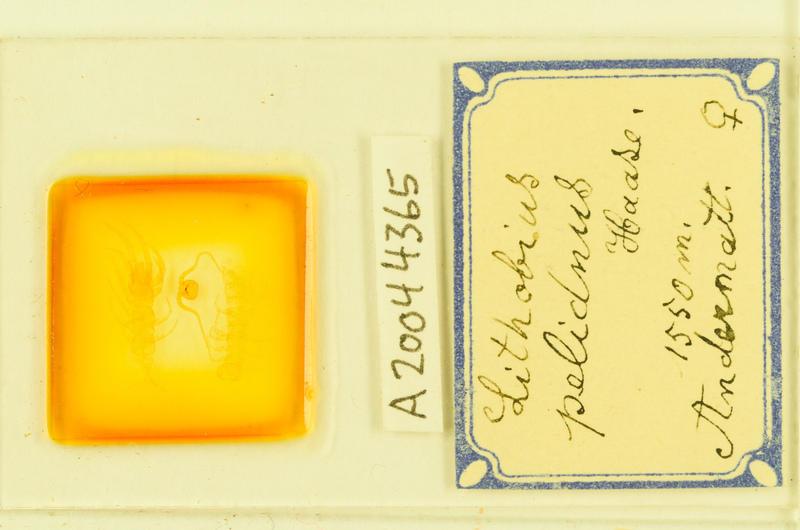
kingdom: Animalia
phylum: Arthropoda
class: Chilopoda
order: Lithobiomorpha
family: Lithobiidae
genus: Lithobius
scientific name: Lithobius pelidnus
